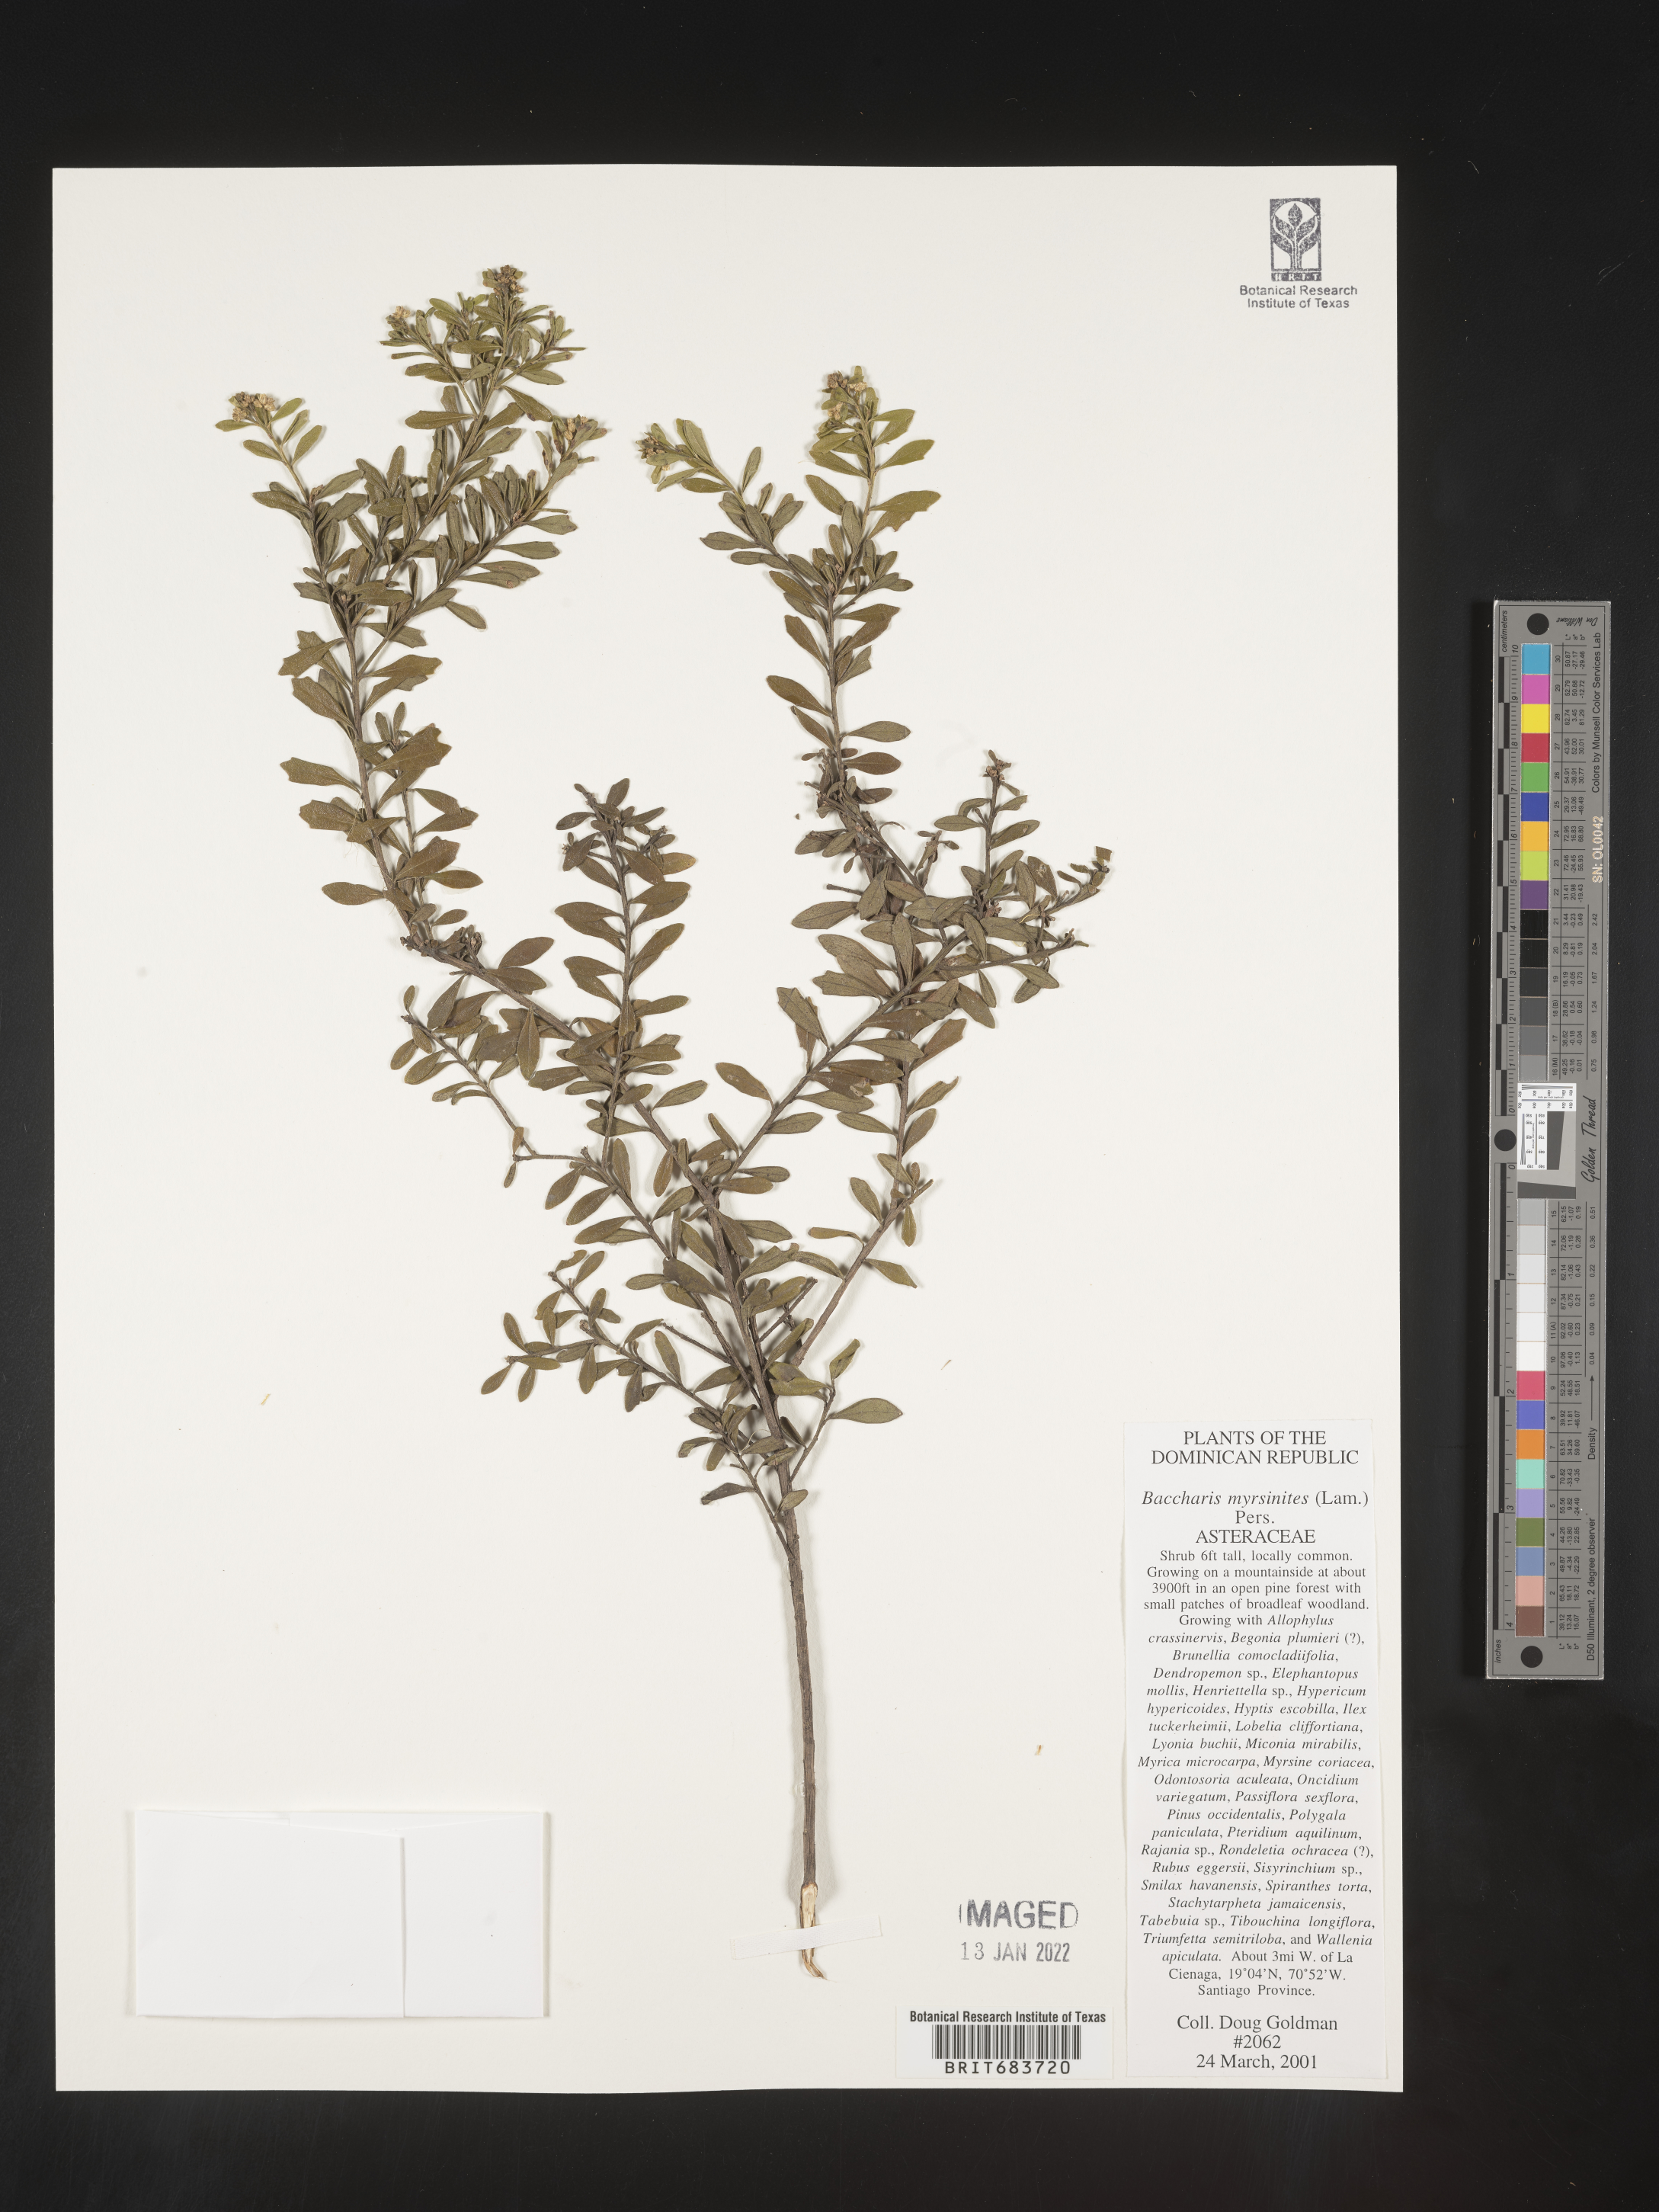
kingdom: Plantae
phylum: Tracheophyta
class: Magnoliopsida
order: Asterales
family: Asteraceae
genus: Baccharis
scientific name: Baccharis
